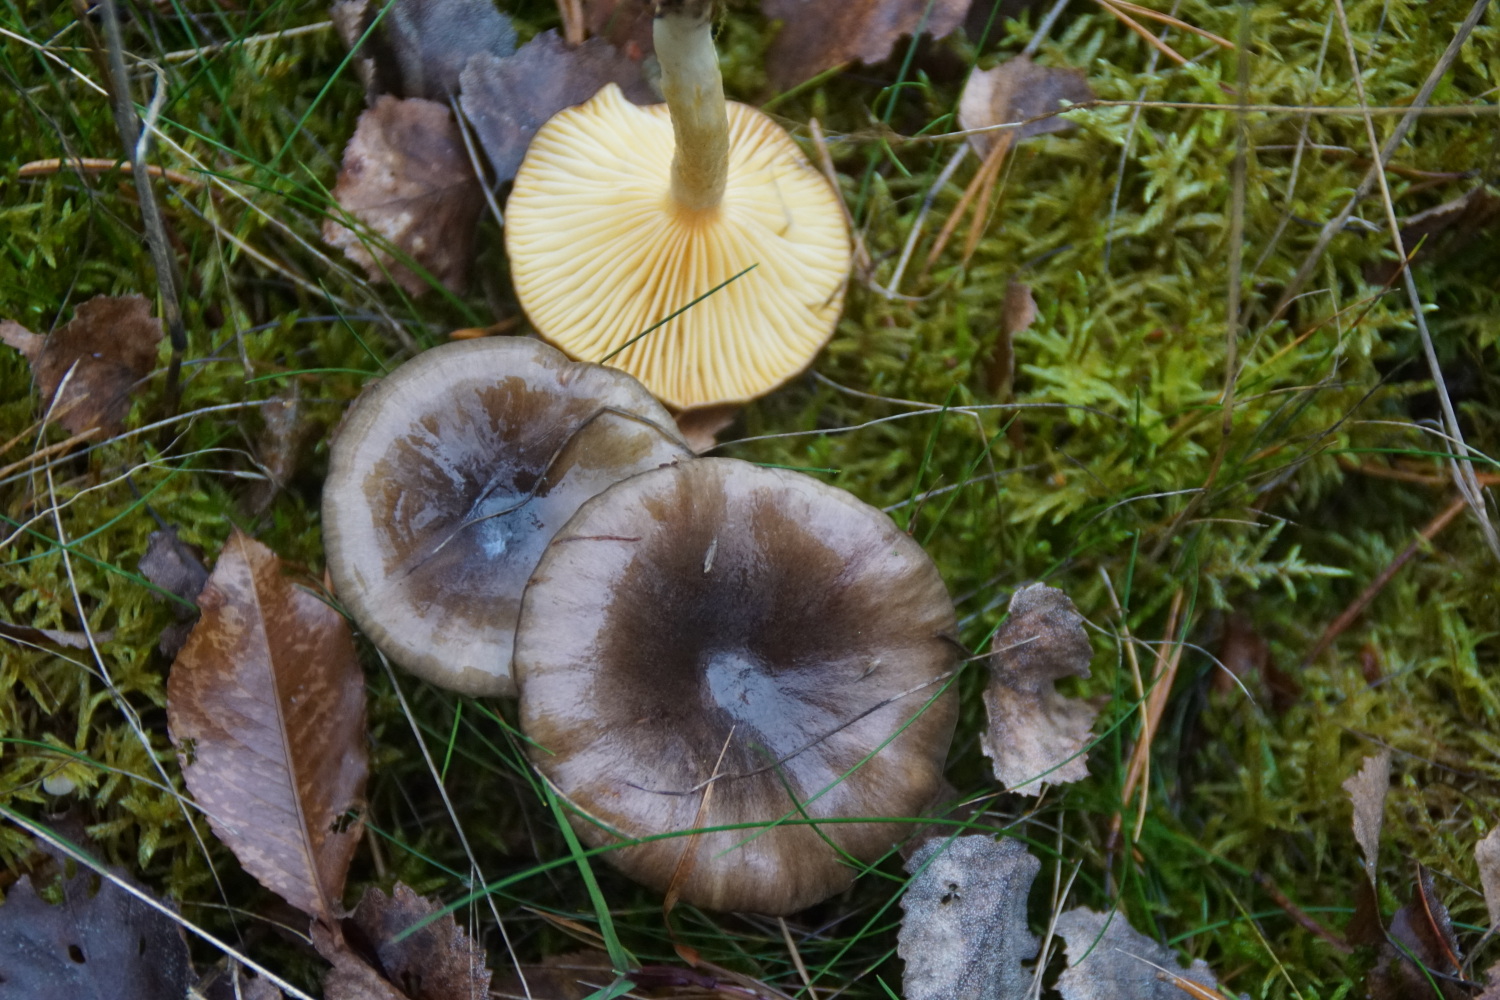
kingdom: Fungi
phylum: Basidiomycota
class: Agaricomycetes
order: Agaricales
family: Hygrophoraceae
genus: Hygrophorus
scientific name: Hygrophorus hypothejus
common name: frost-sneglehat
